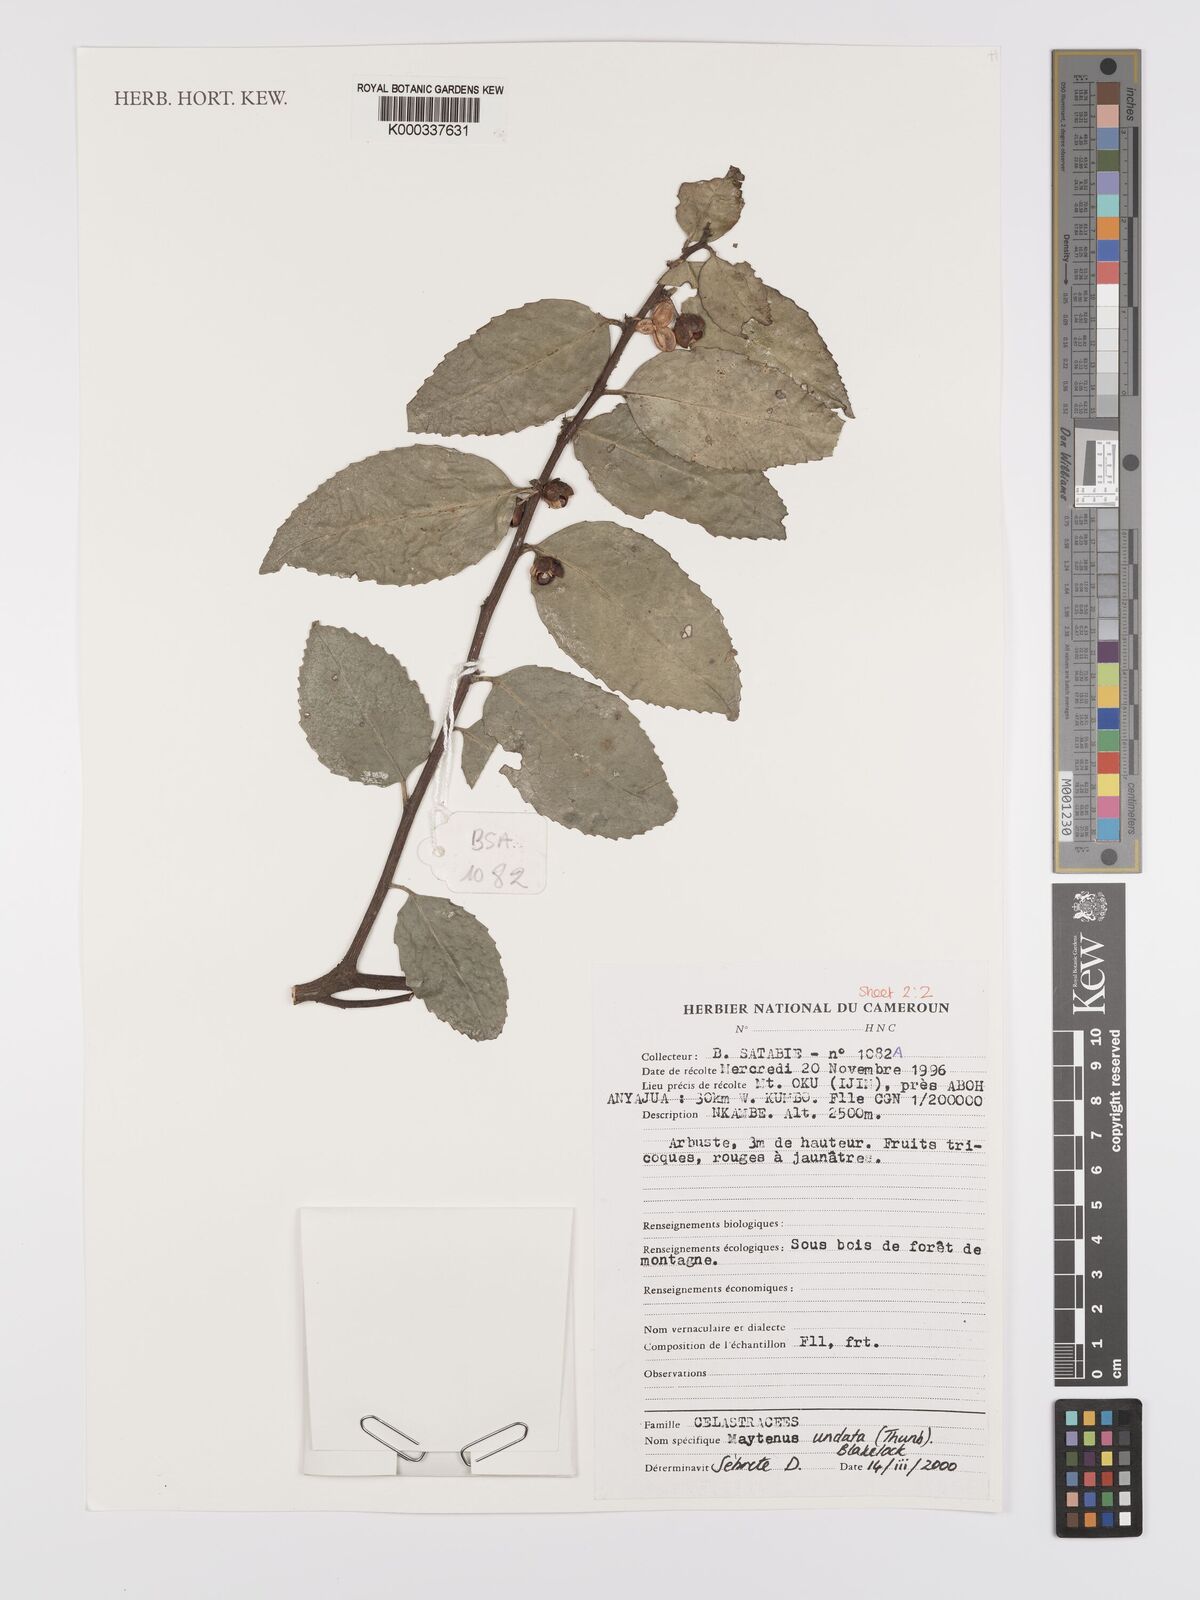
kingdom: Plantae
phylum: Tracheophyta
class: Magnoliopsida
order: Celastrales
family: Celastraceae
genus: Gymnosporia
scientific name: Gymnosporia undata
